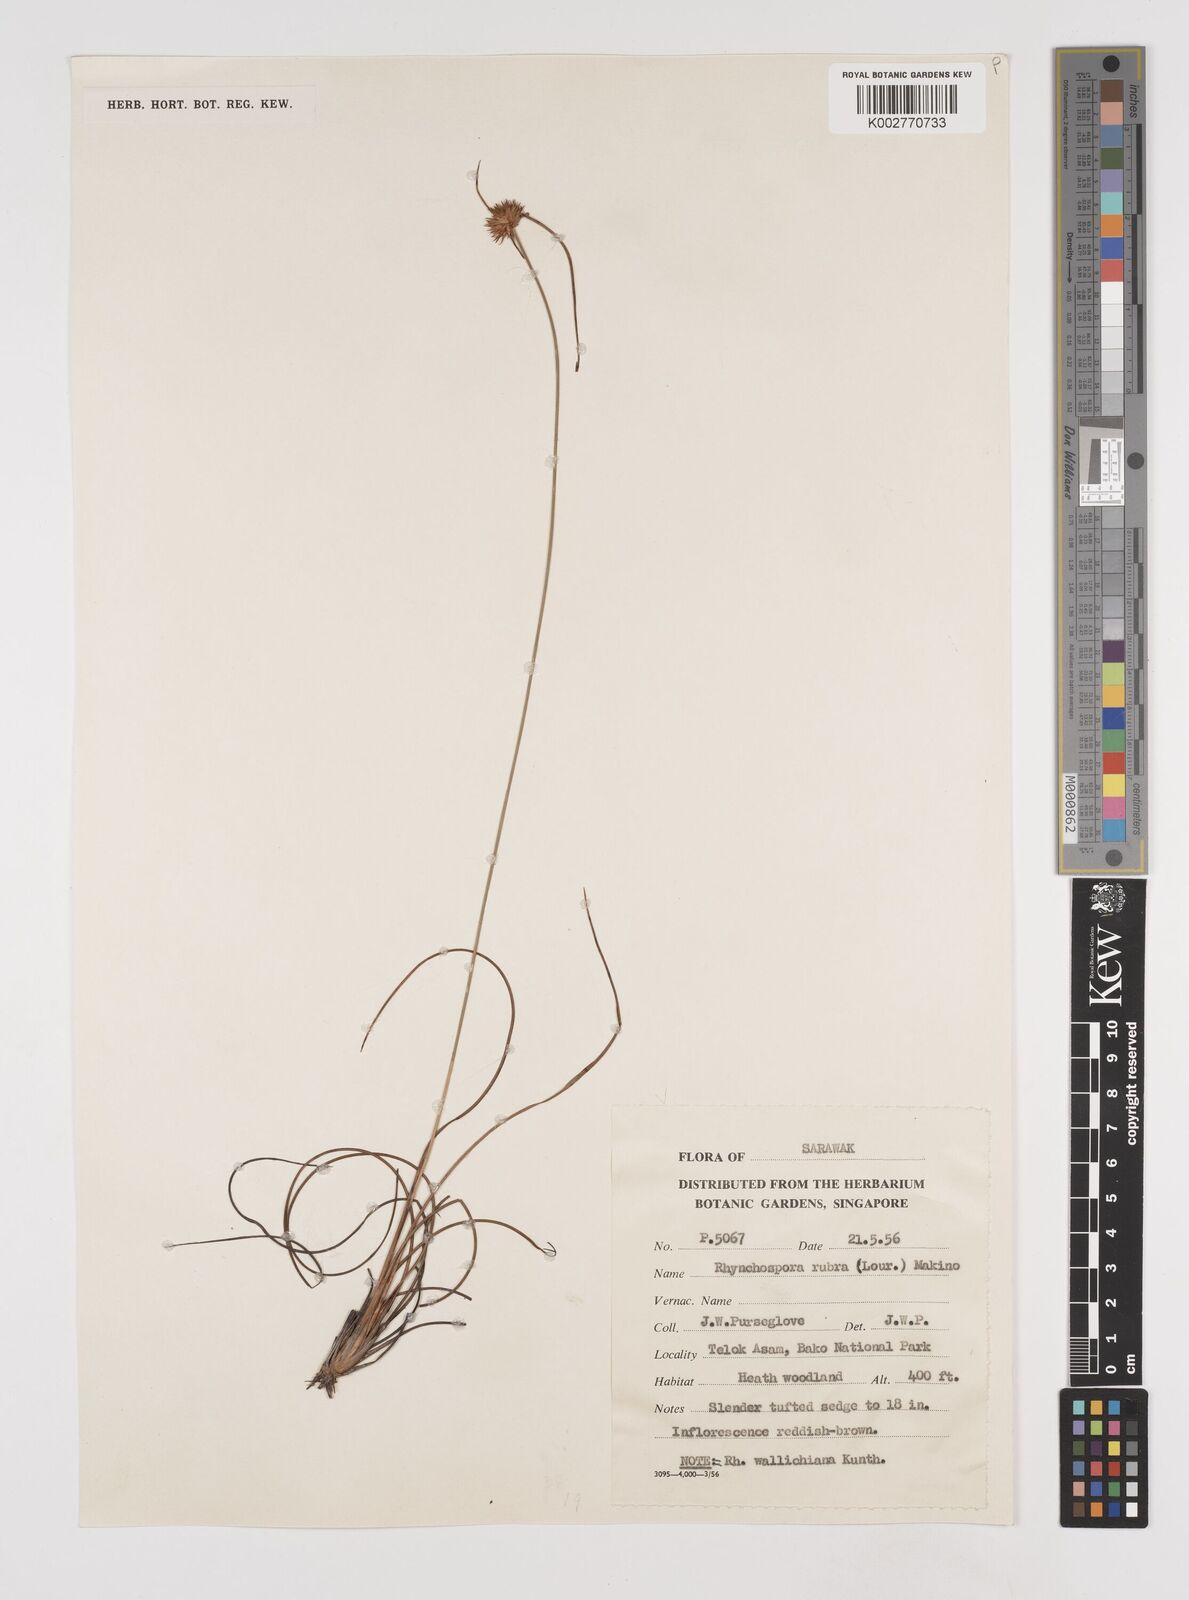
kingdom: Plantae
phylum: Tracheophyta
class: Liliopsida
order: Poales
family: Cyperaceae
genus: Rhynchospora
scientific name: Rhynchospora rubra
